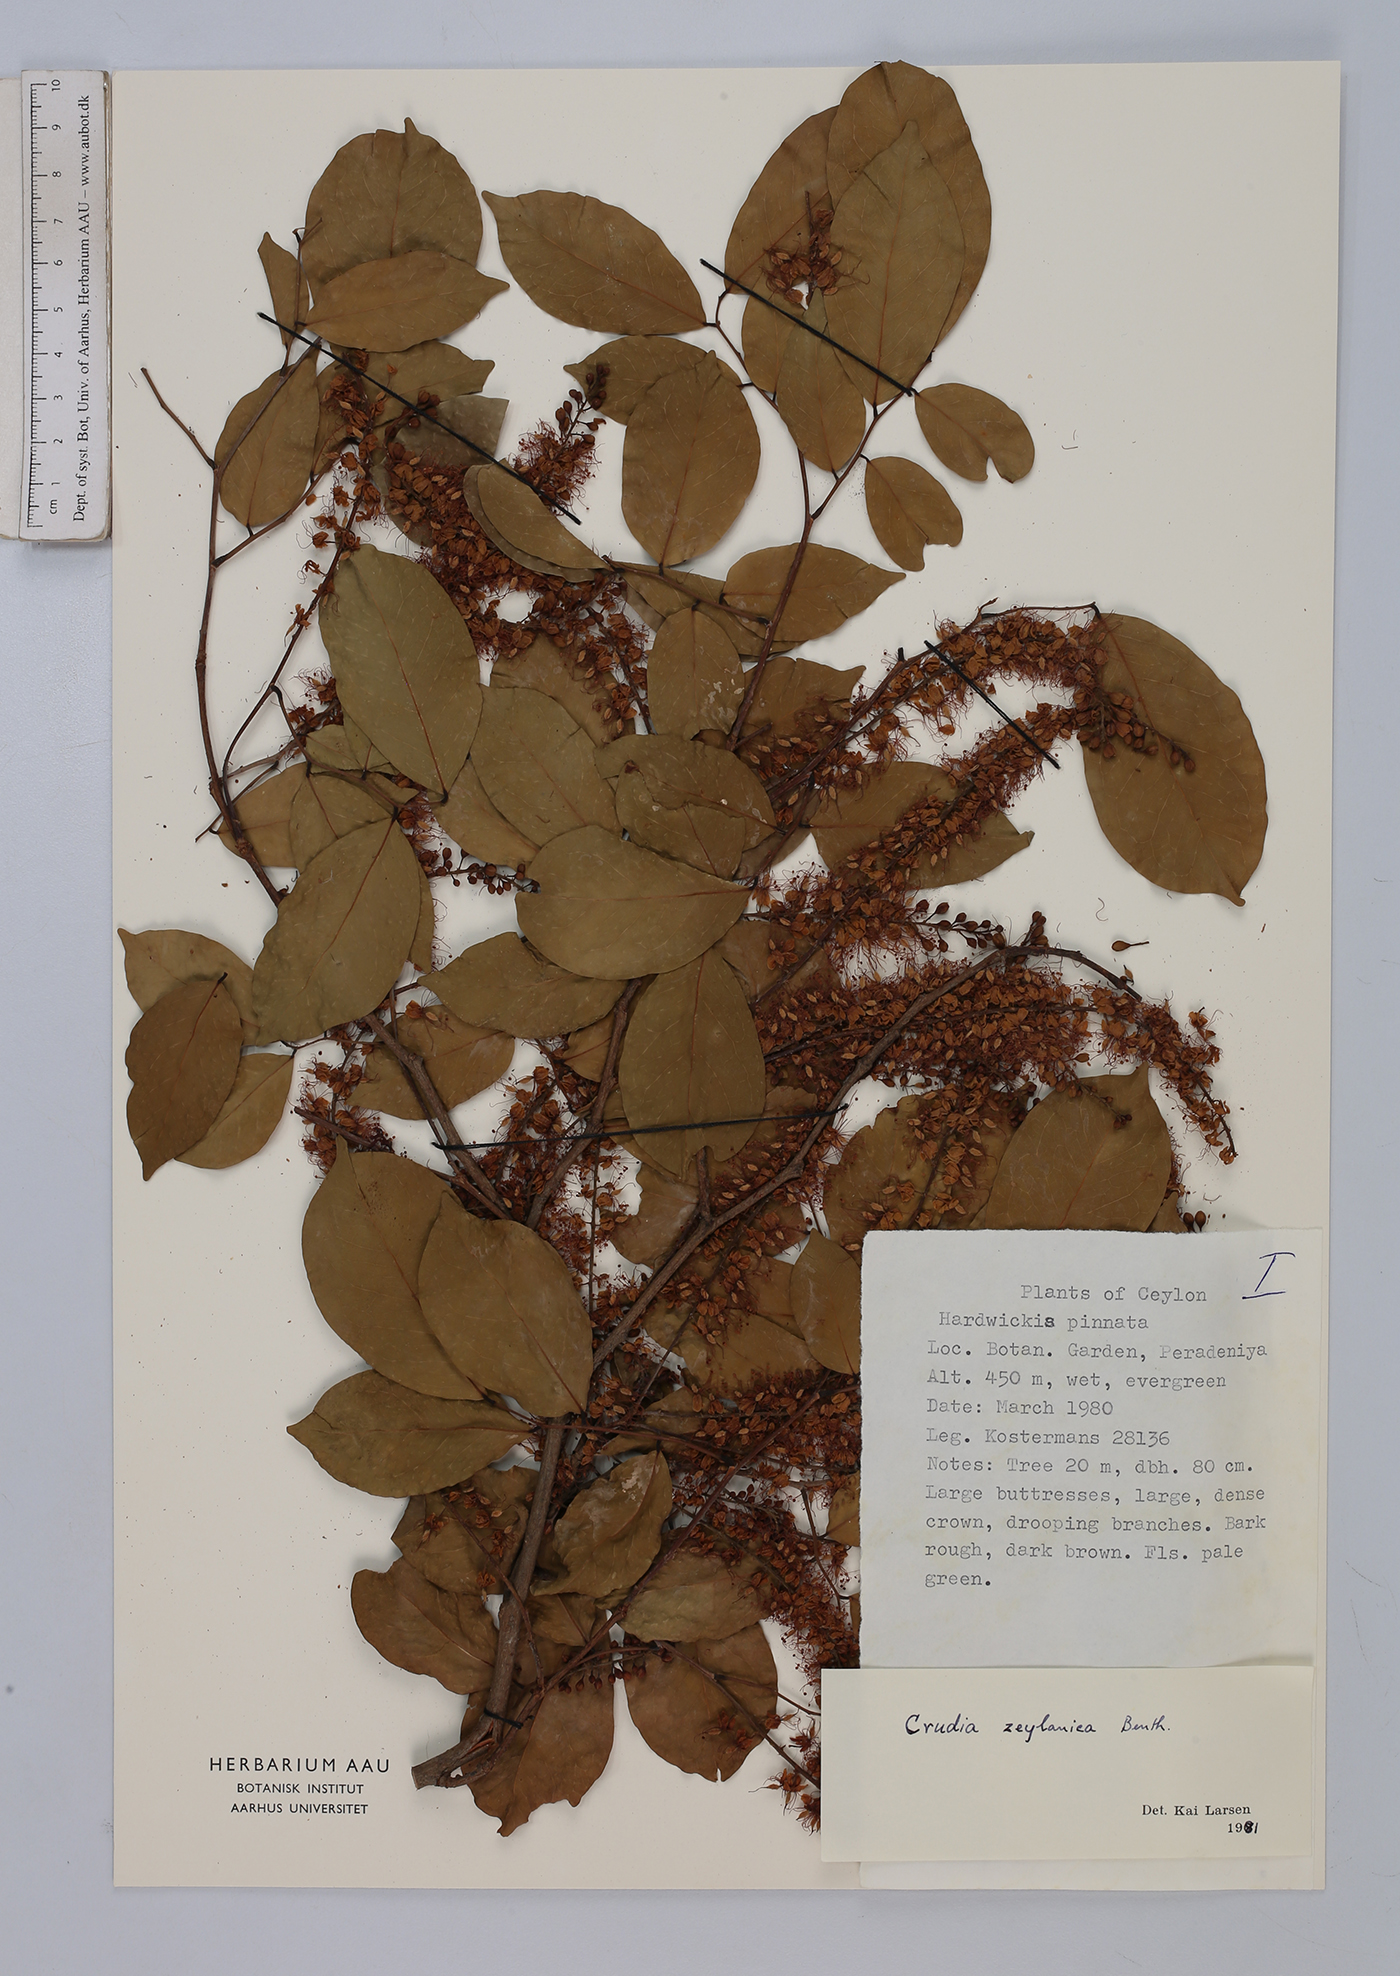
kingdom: Plantae
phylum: Tracheophyta
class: Magnoliopsida
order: Fabales
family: Fabaceae
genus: Crudia
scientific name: Crudia zeylanica
